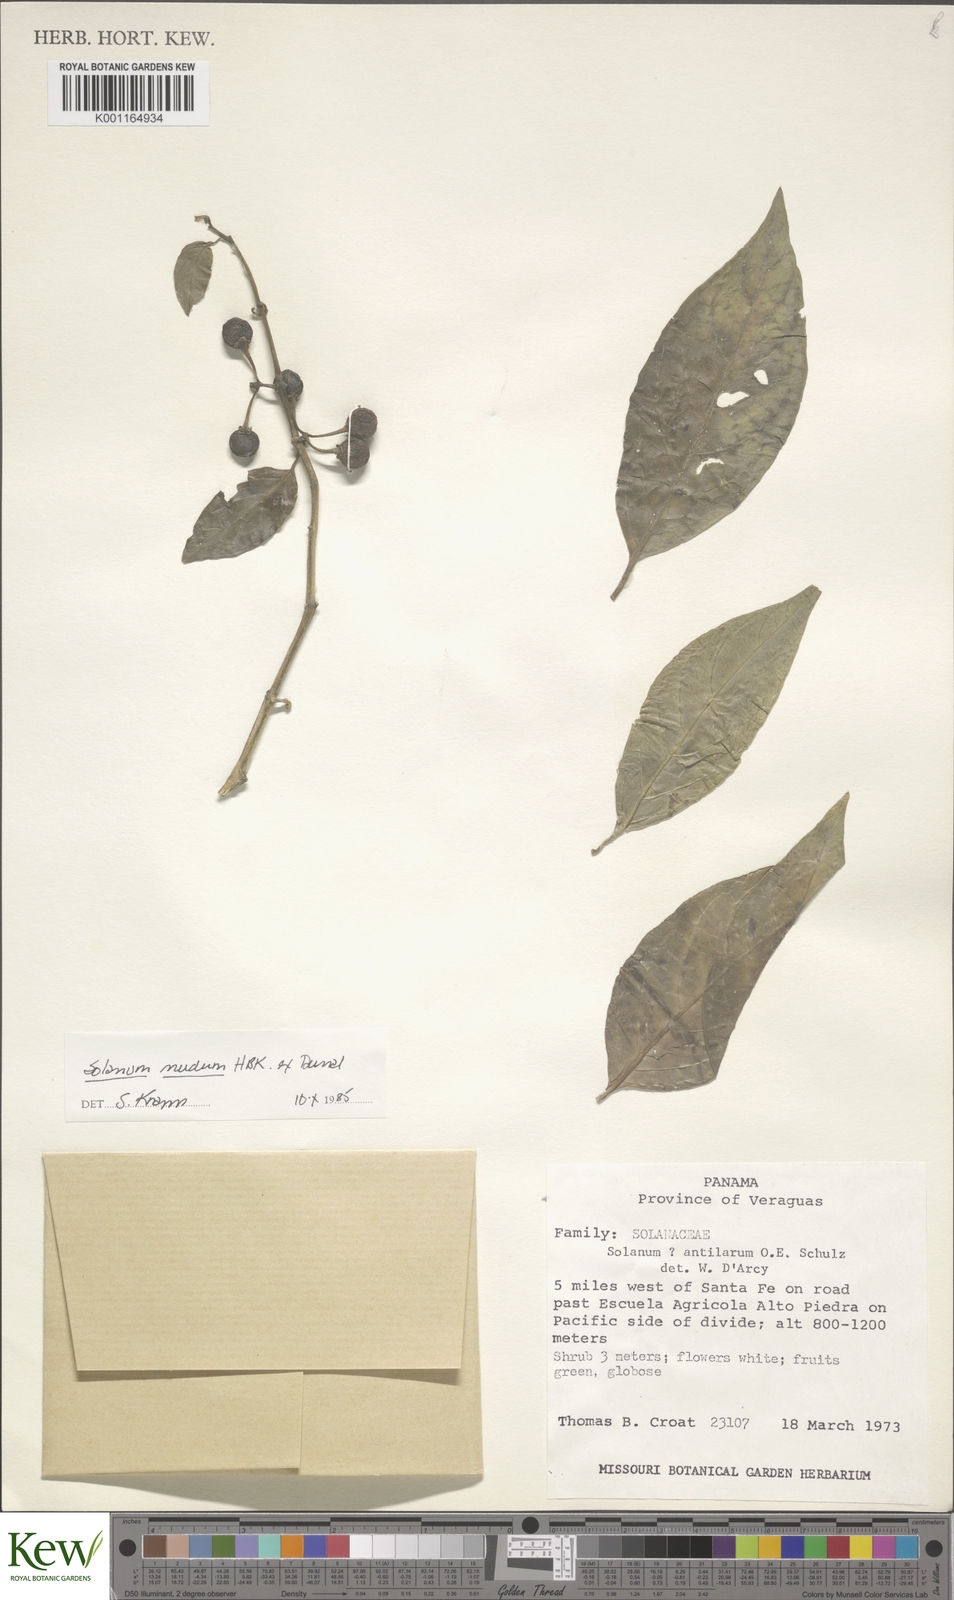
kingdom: Plantae
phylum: Tracheophyta
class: Magnoliopsida
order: Solanales
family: Solanaceae
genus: Solanum
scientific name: Solanum nudum
